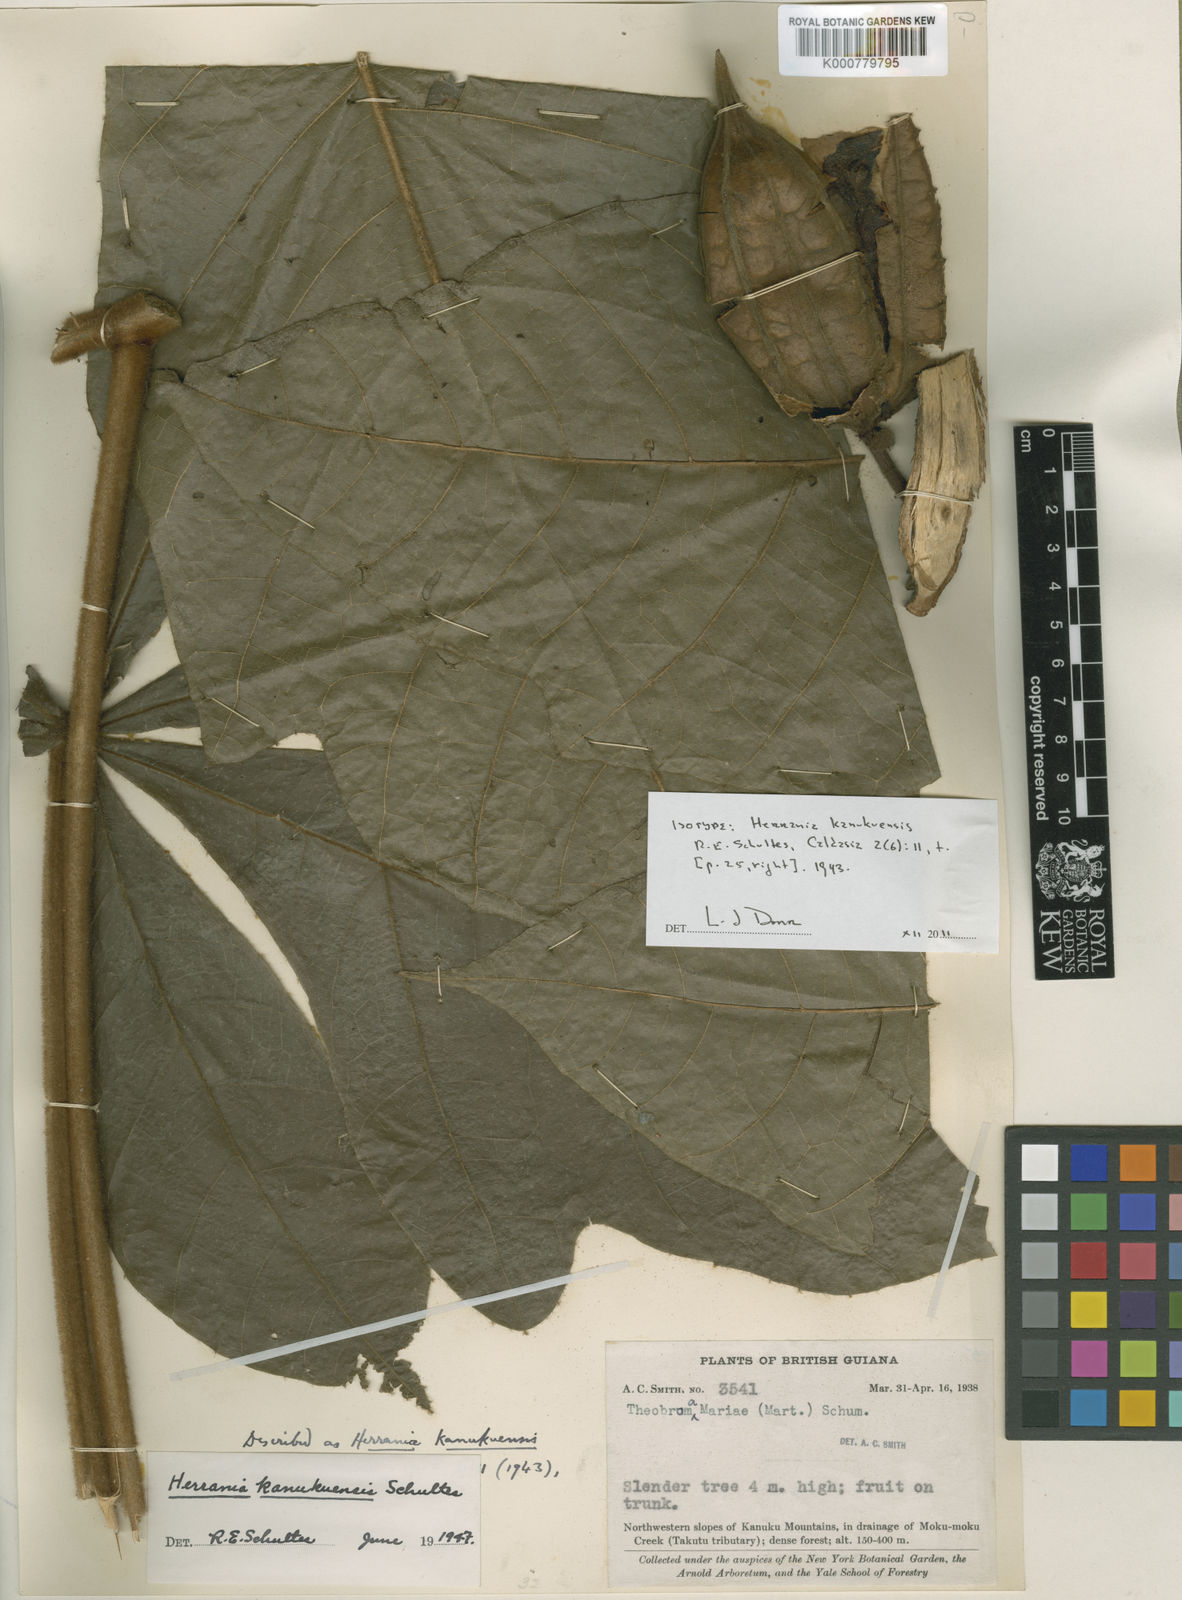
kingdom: Plantae
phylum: Tracheophyta
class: Magnoliopsida
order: Malvales
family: Malvaceae
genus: Herrania
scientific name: Herrania kanukuensis
